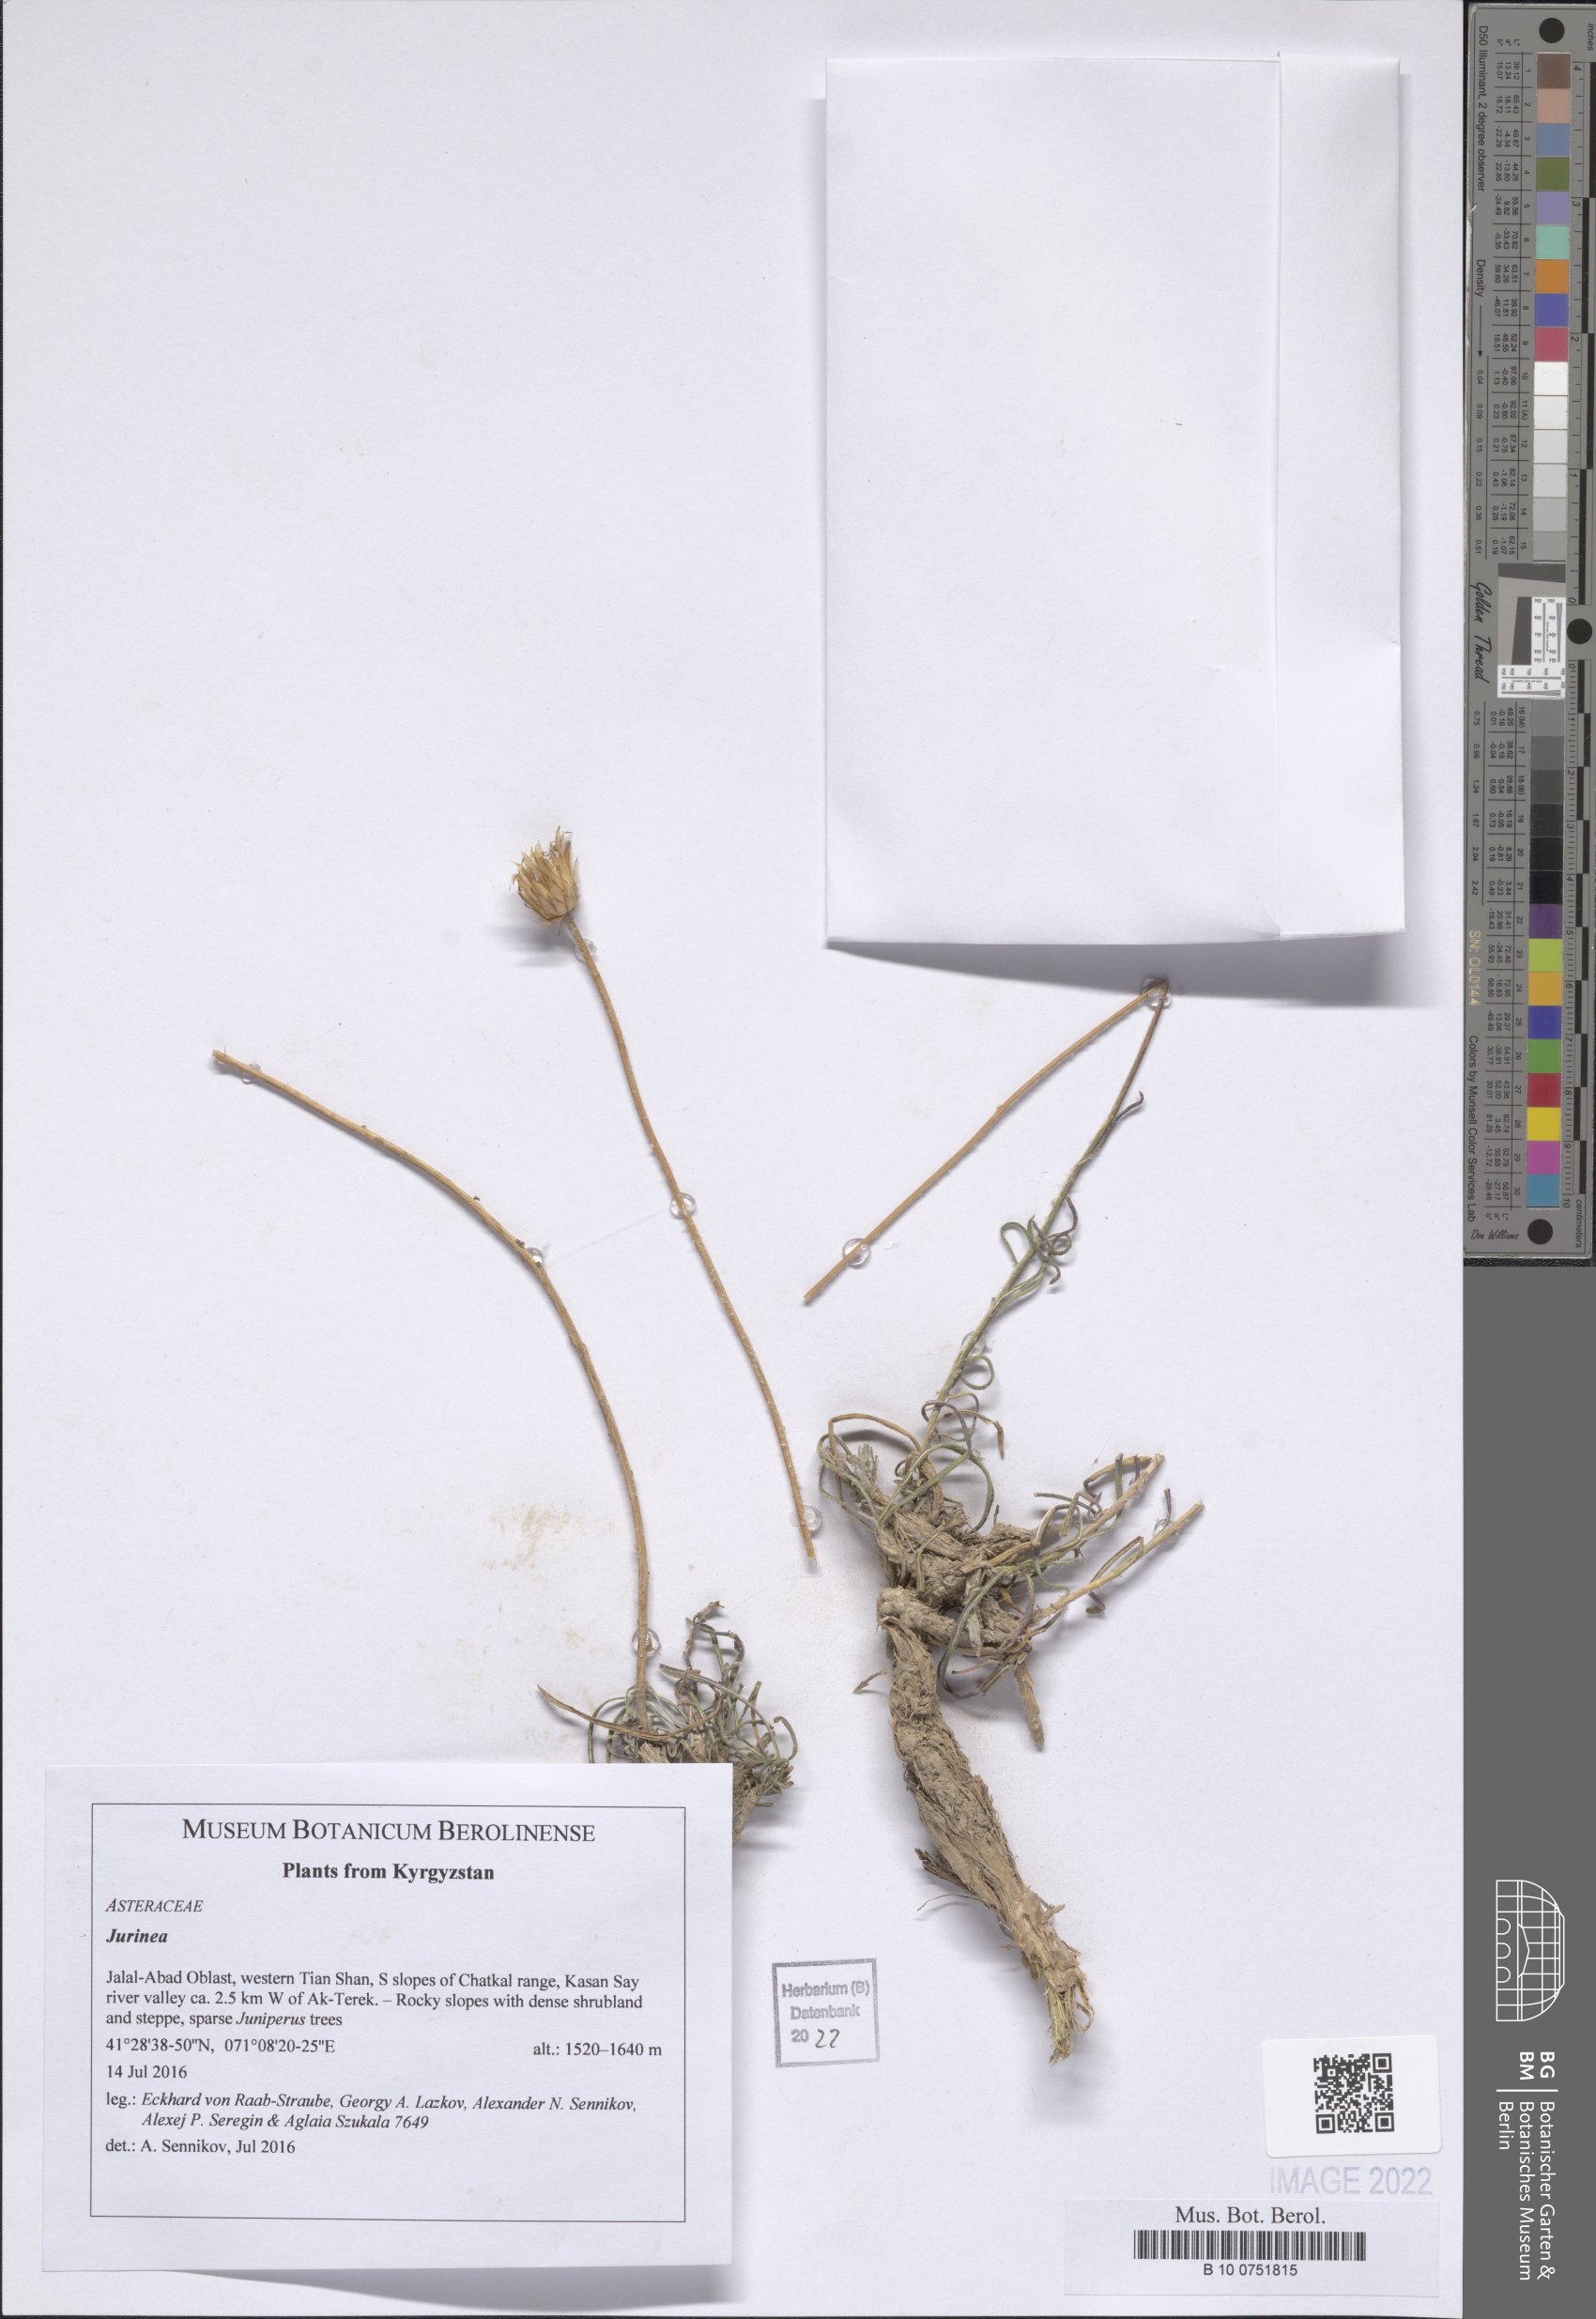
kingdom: Plantae
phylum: Tracheophyta
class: Magnoliopsida
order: Asterales
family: Asteraceae
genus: Jurinea
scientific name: Jurinea
